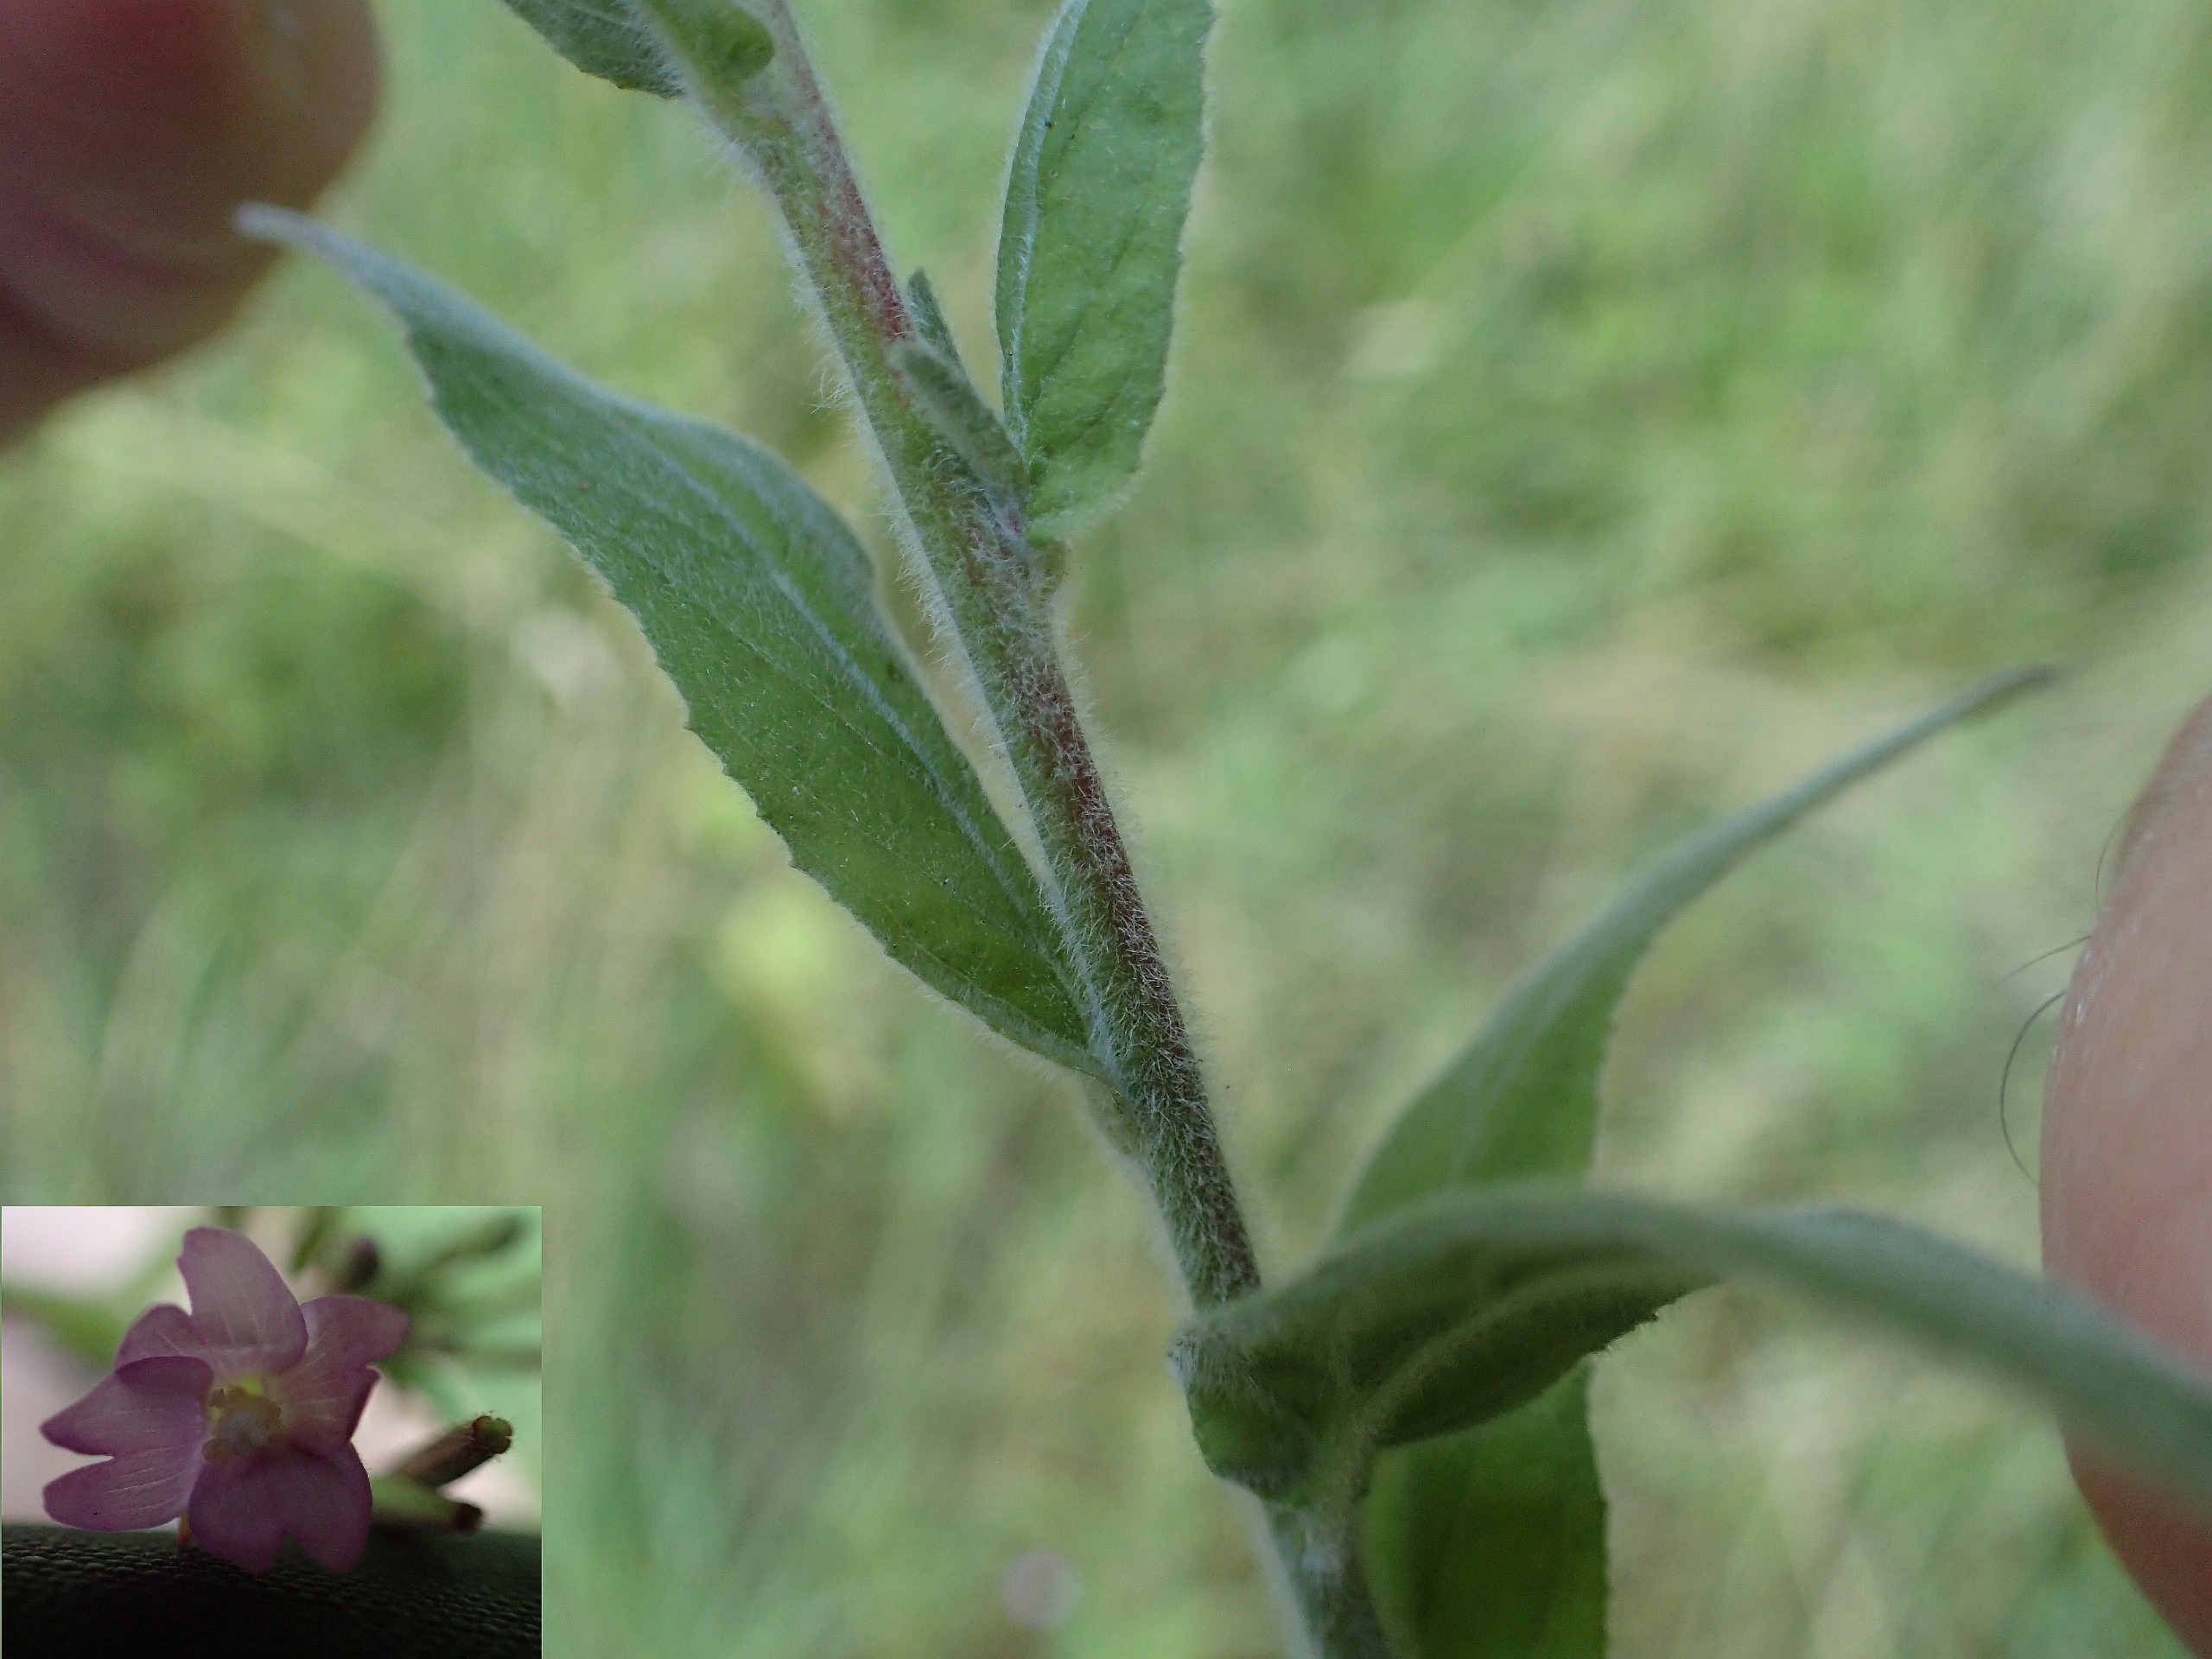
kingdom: Plantae
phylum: Tracheophyta
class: Magnoliopsida
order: Myrtales
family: Onagraceae
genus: Epilobium
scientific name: Epilobium parviflorum
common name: Dunet dueurt
